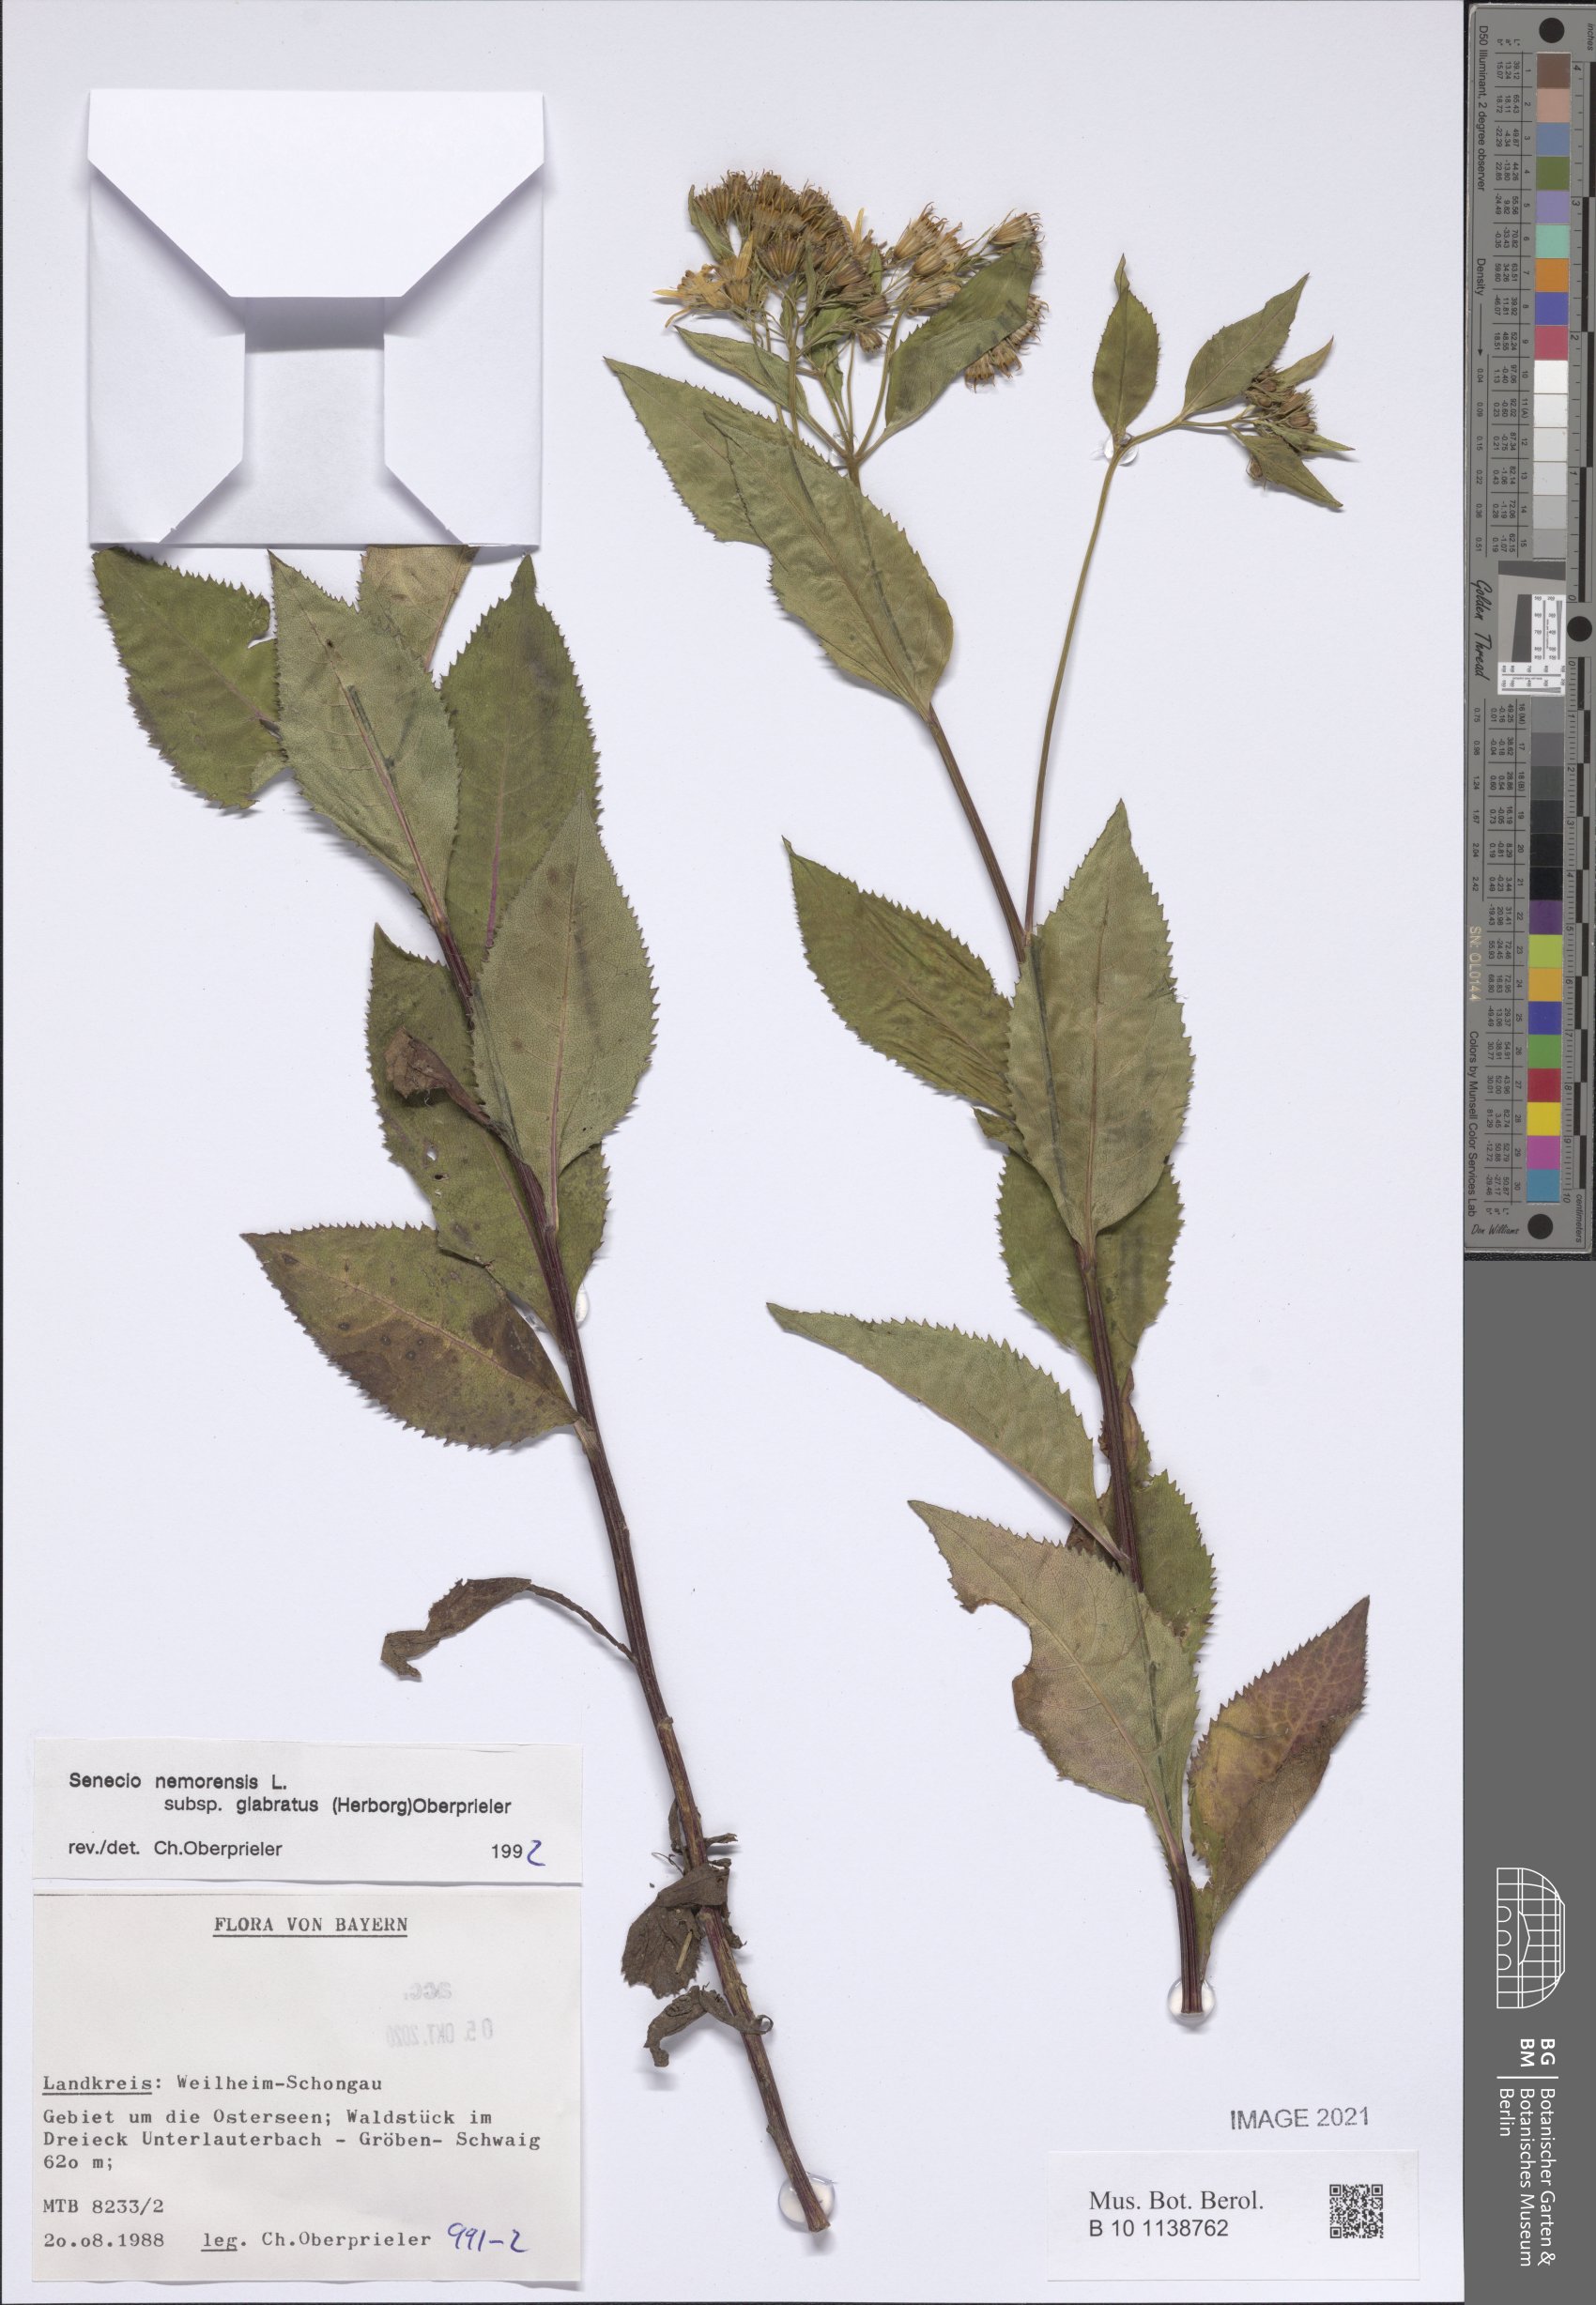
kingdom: Plantae
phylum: Tracheophyta
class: Magnoliopsida
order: Asterales
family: Asteraceae
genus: Senecio
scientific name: Senecio germanicus
